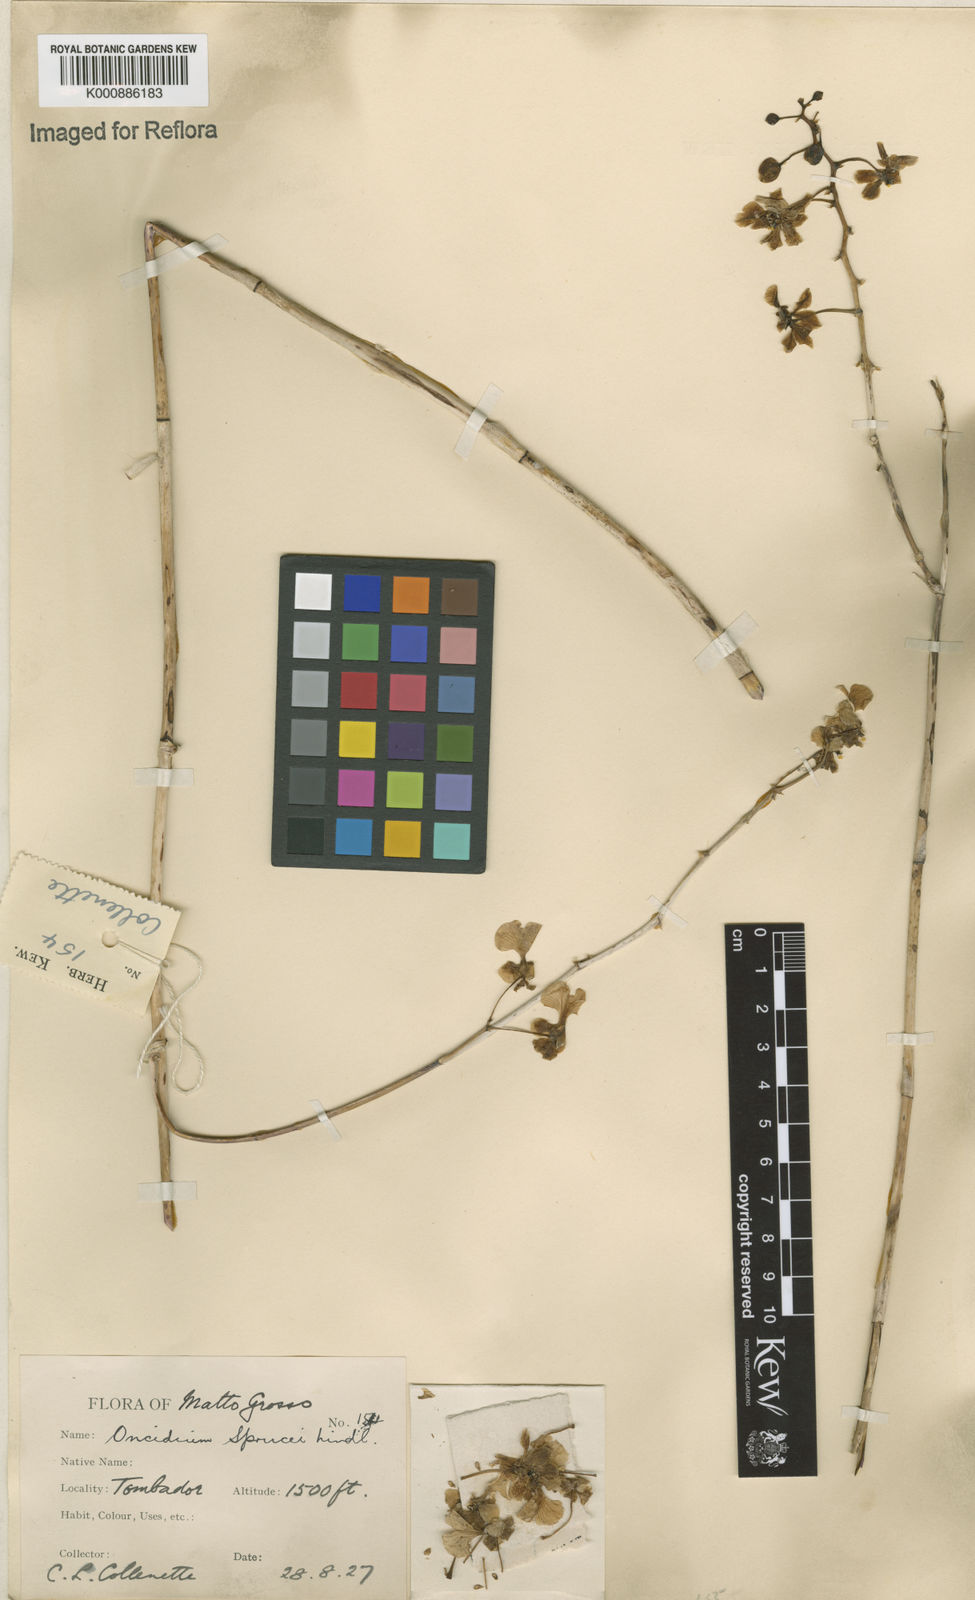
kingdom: Plantae
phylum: Tracheophyta
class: Liliopsida
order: Asparagales
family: Orchidaceae
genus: Trichocentrum
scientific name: Trichocentrum cebolleta
